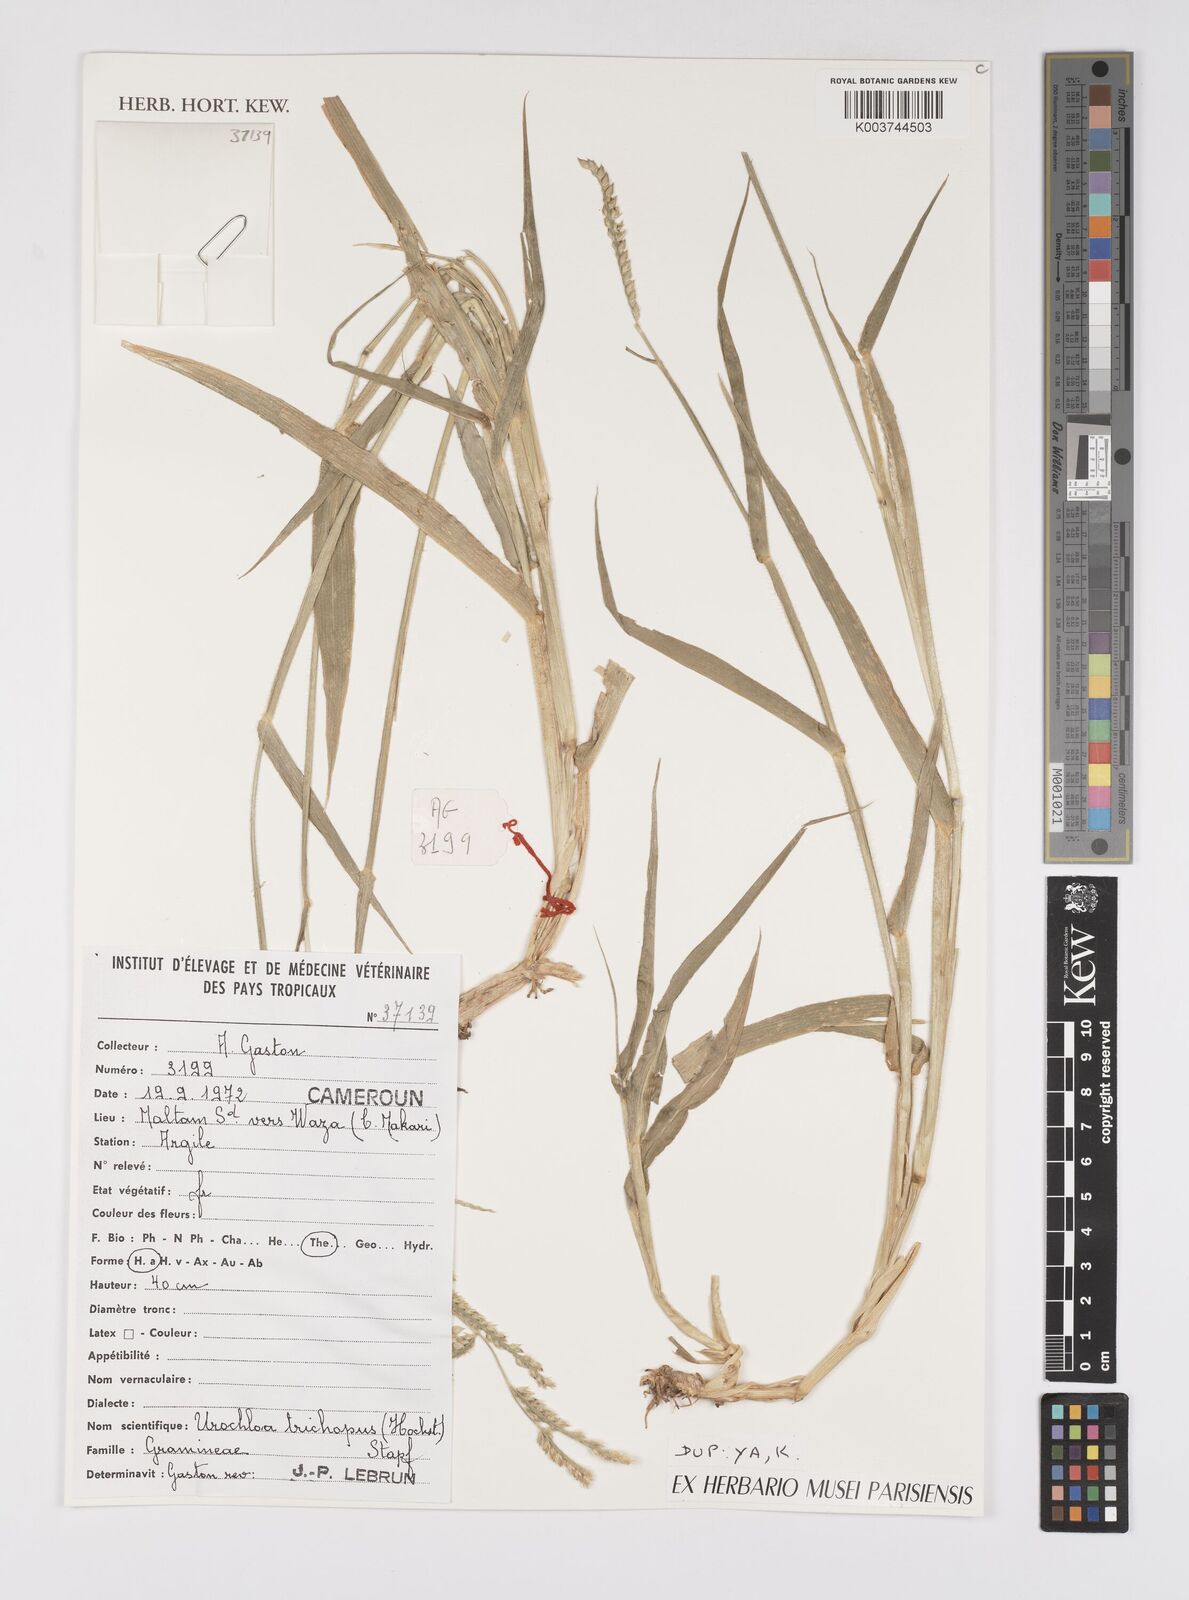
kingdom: Plantae
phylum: Tracheophyta
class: Liliopsida
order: Poales
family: Poaceae
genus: Urochloa
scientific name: Urochloa trichopus
